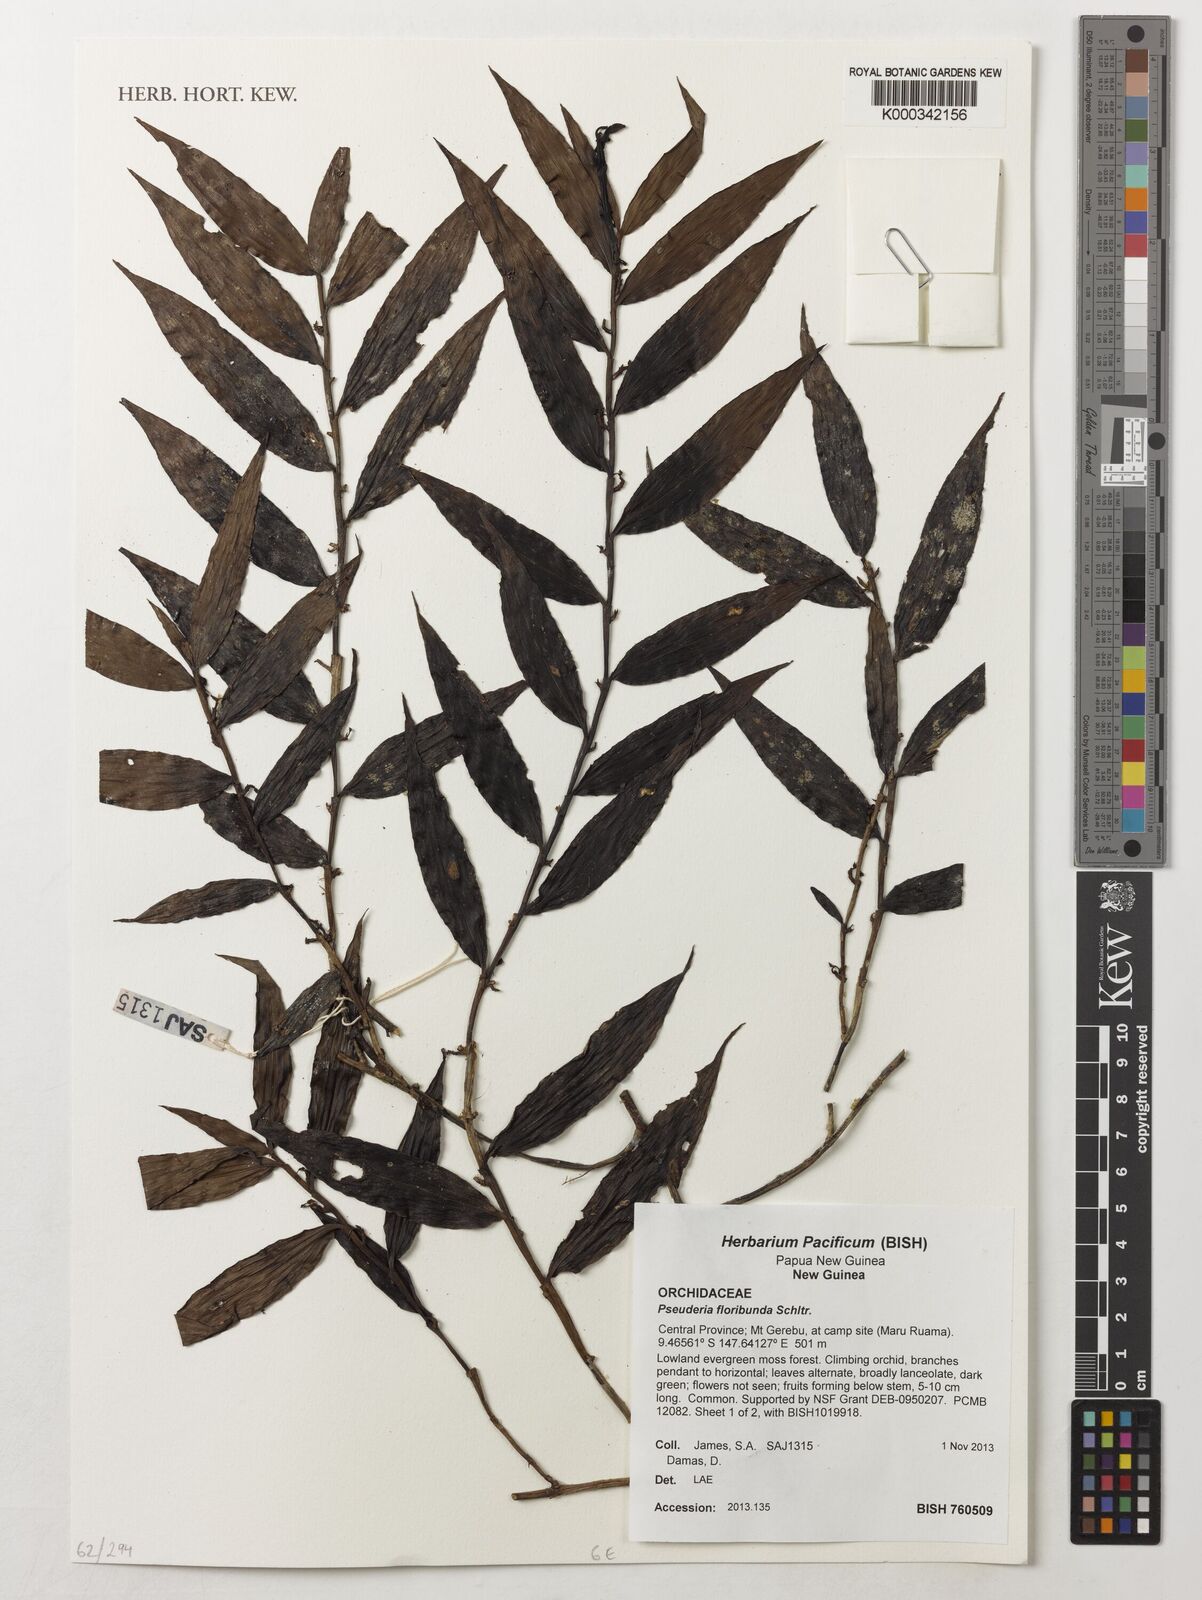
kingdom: Plantae
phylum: Tracheophyta
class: Liliopsida
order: Asparagales
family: Orchidaceae
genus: Pseuderia
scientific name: Pseuderia floribunda
